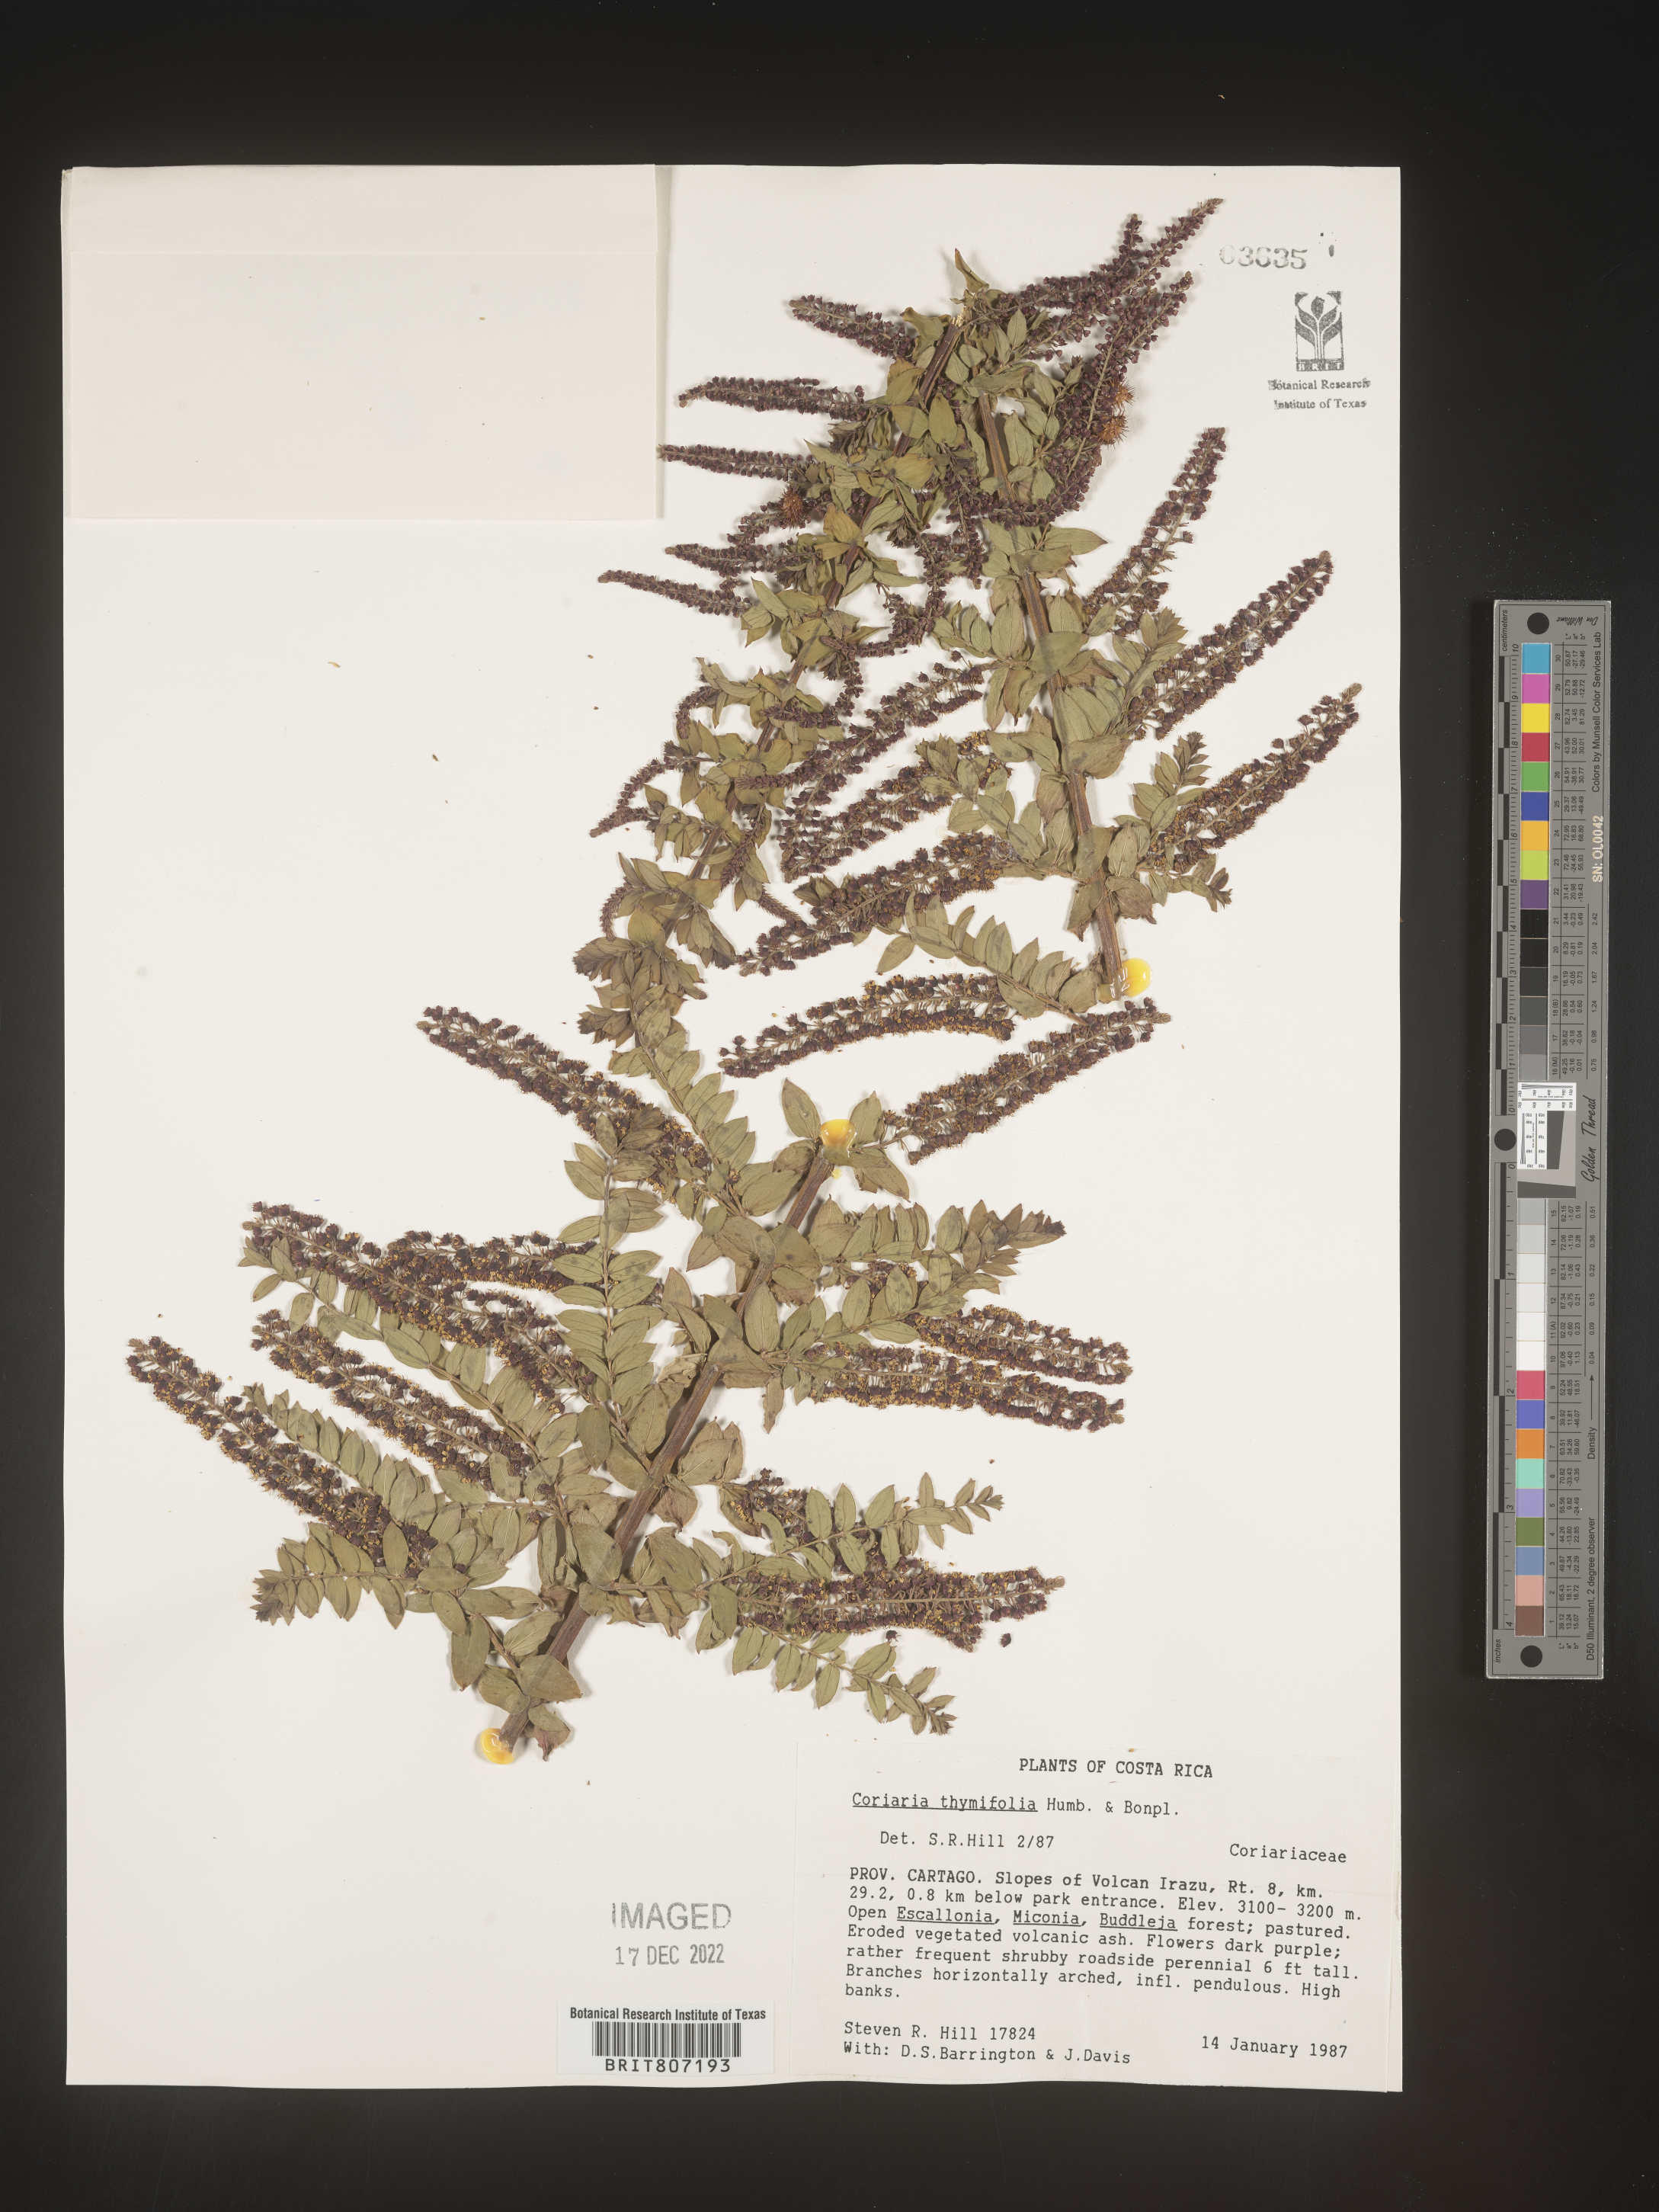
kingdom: Plantae
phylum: Tracheophyta
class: Magnoliopsida
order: Cucurbitales
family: Coriariaceae
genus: Coriaria
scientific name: Coriaria
